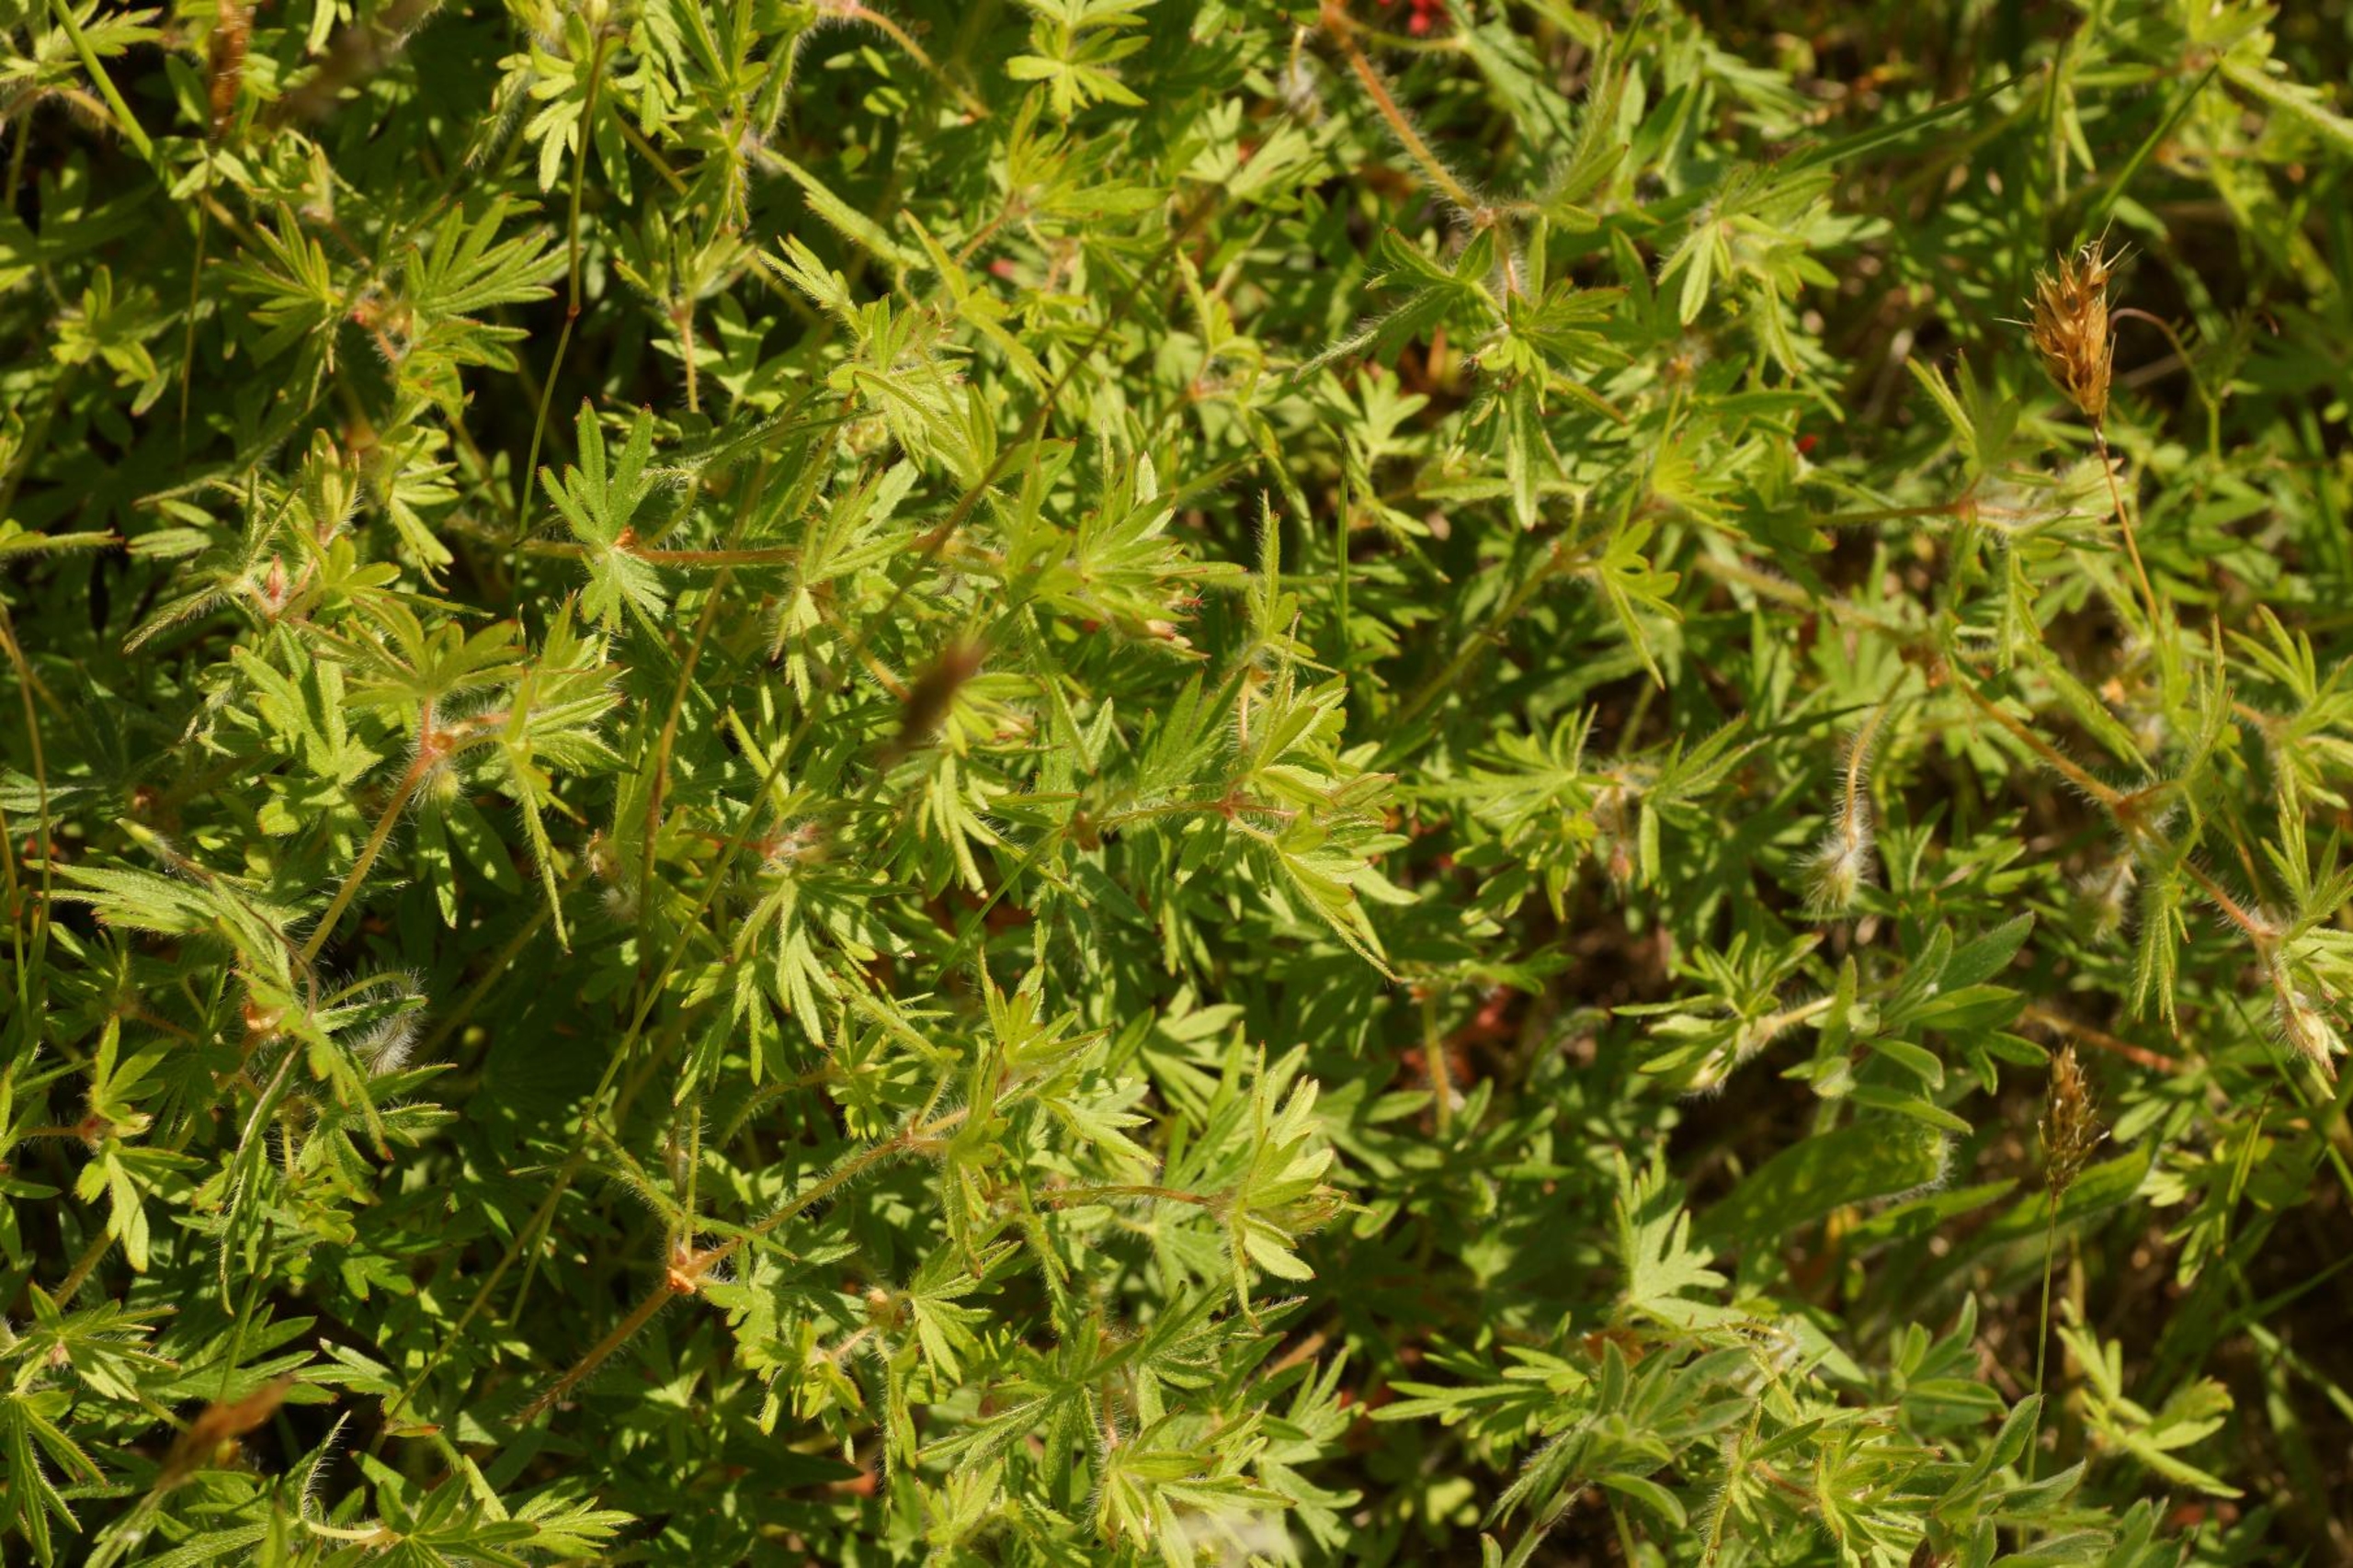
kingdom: Plantae
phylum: Tracheophyta
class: Magnoliopsida
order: Geraniales
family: Geraniaceae
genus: Geranium
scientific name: Geranium sanguineum
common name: Blodrød storkenæb
